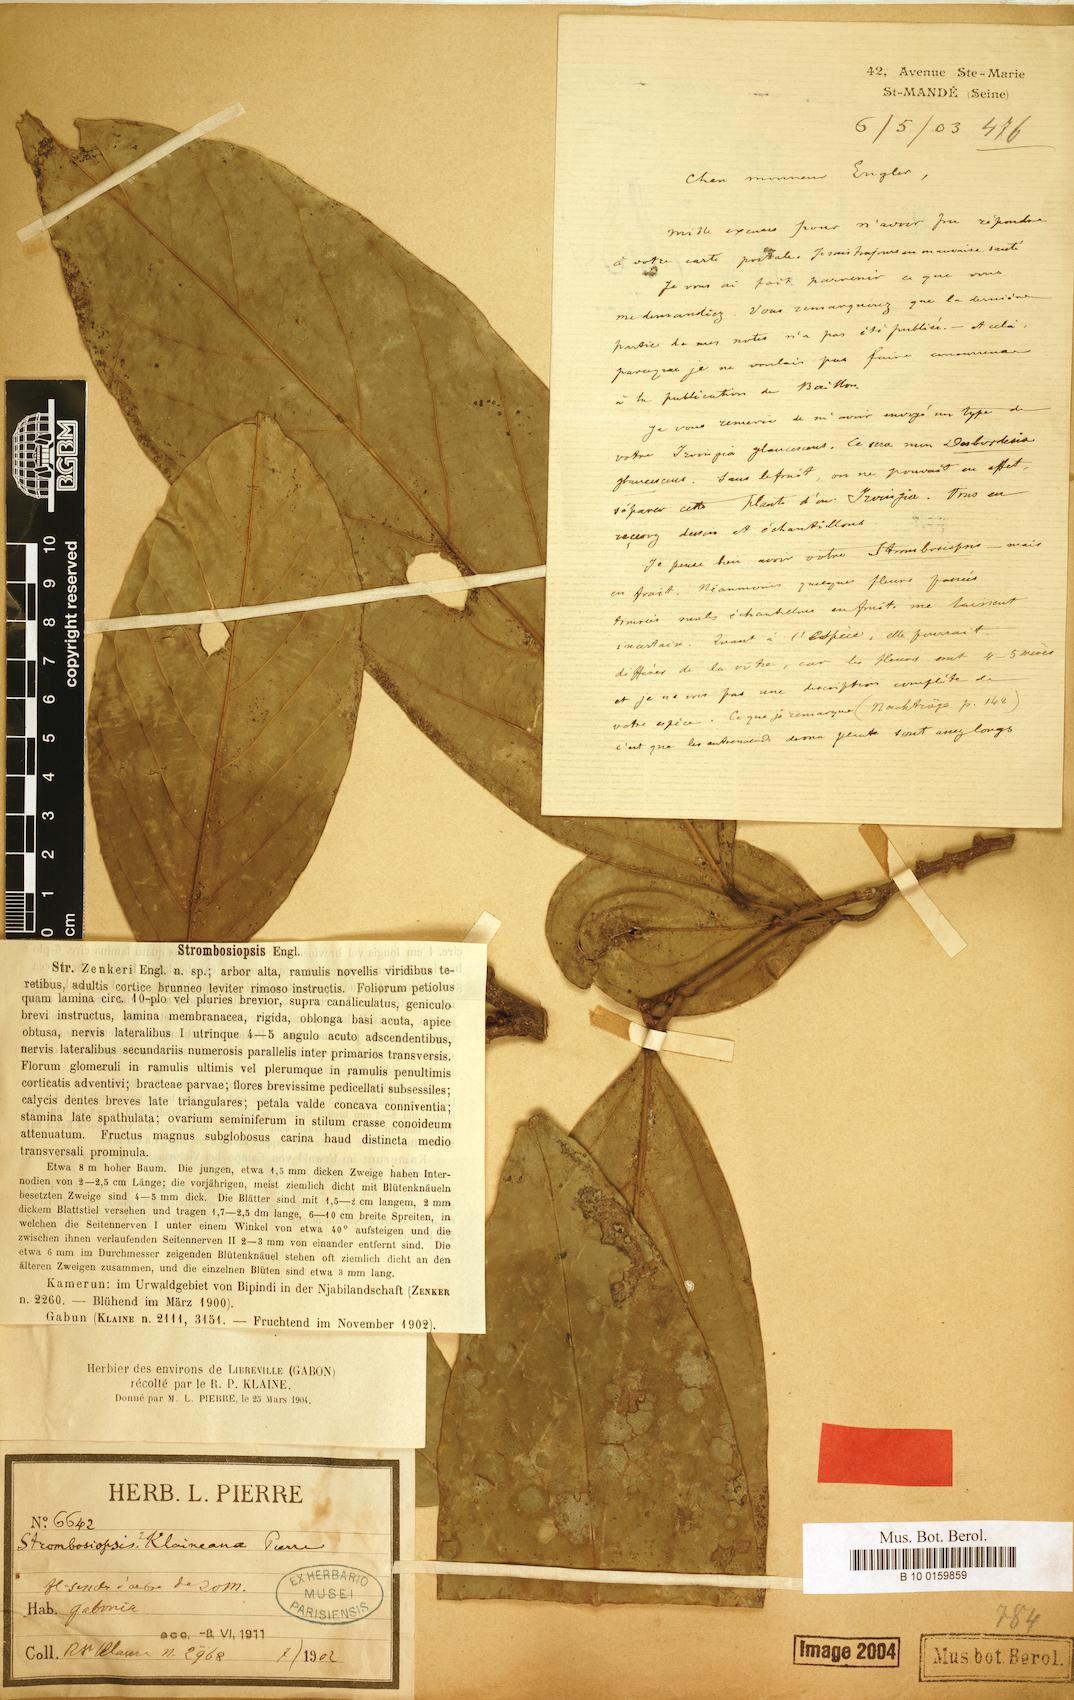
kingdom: Plantae
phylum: Tracheophyta
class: Magnoliopsida
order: Santalales
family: Strombosiaceae
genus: Diogoa
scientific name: Diogoa zenkeri
